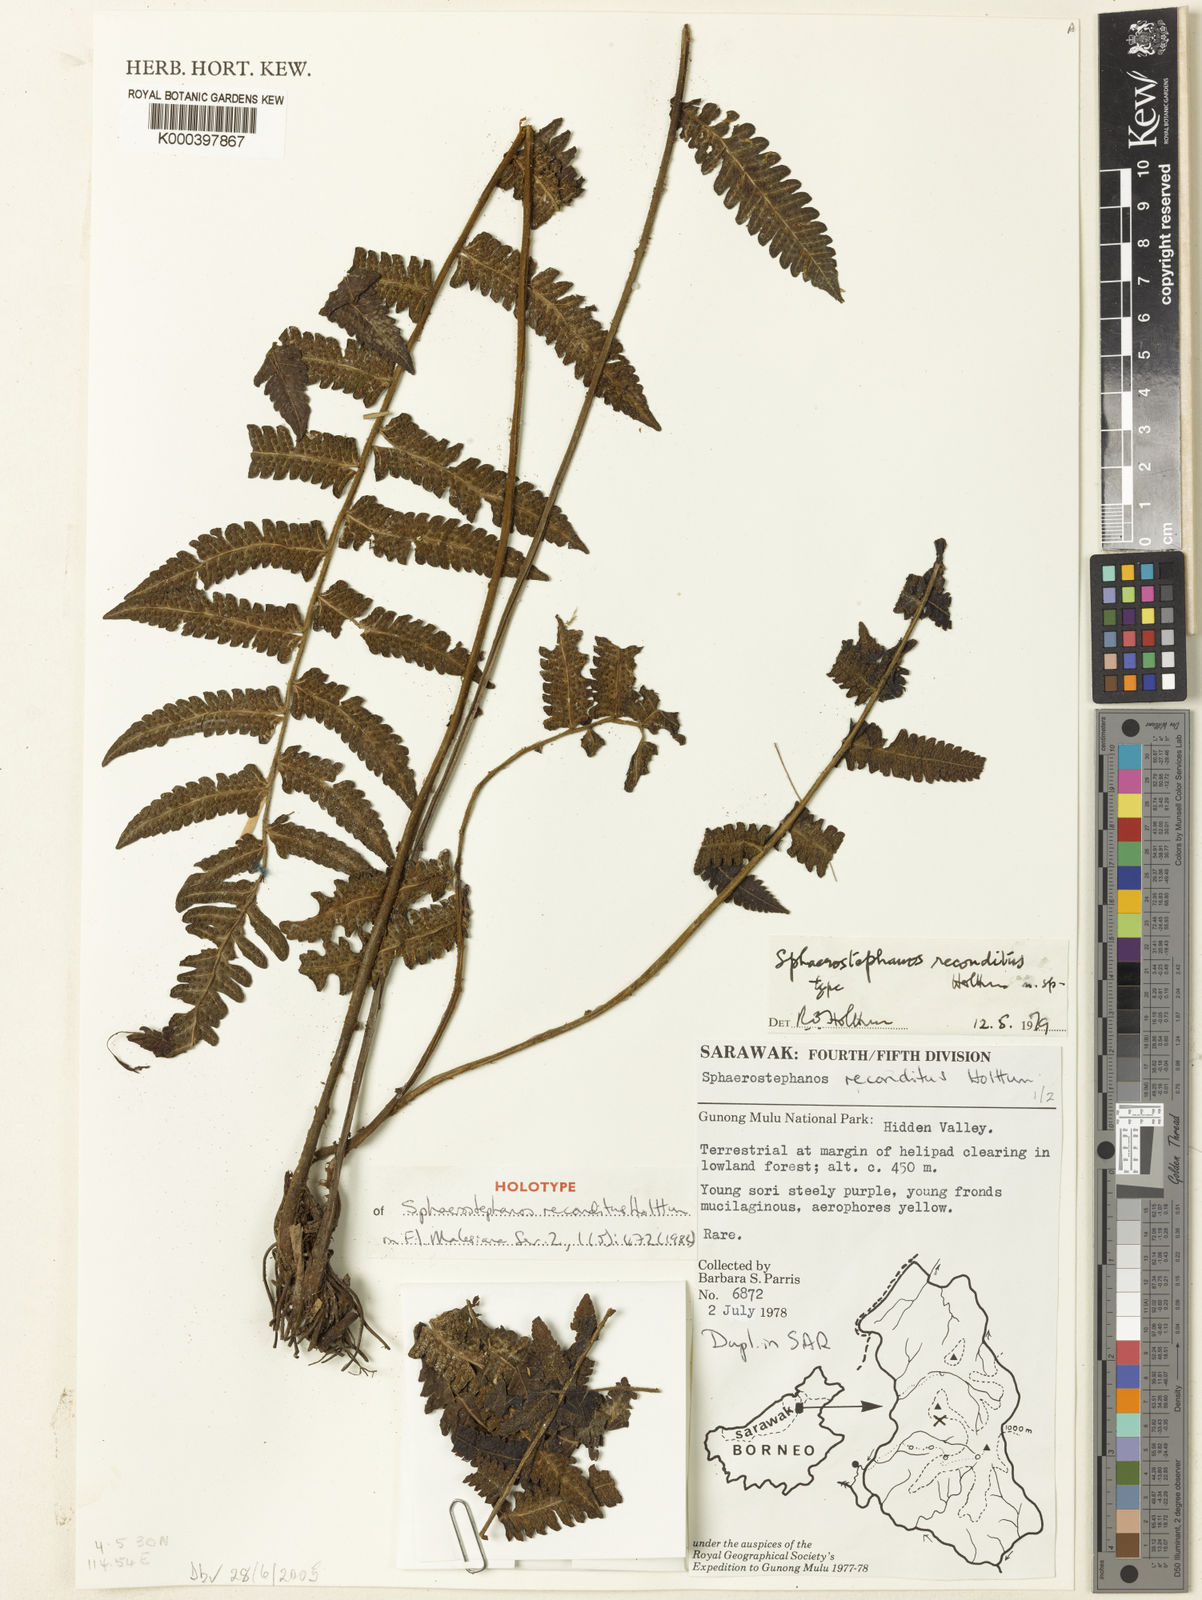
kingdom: Plantae
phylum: Tracheophyta
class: Polypodiopsida
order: Polypodiales
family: Thelypteridaceae
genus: Sphaerostephanos
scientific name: Sphaerostephanos reconditus
